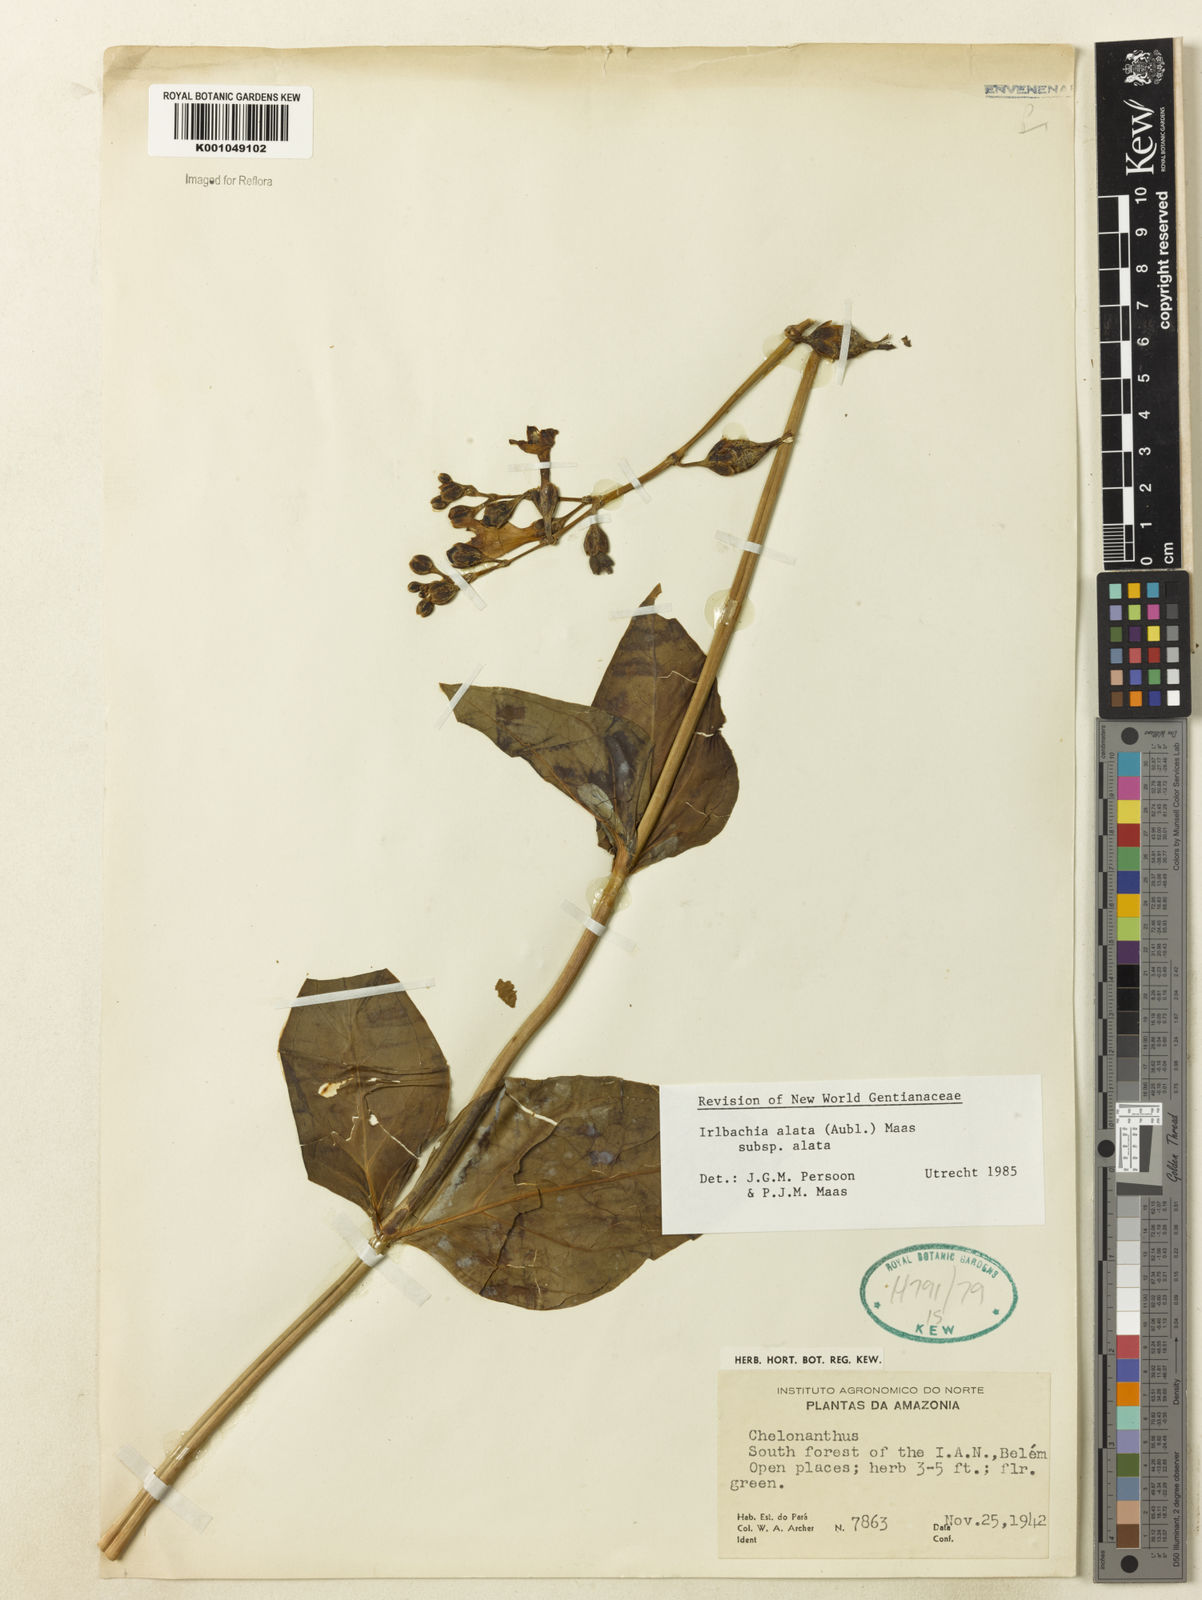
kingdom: Plantae
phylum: Tracheophyta
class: Magnoliopsida
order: Gentianales
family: Gentianaceae
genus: Chelonanthus
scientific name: Chelonanthus alatus
